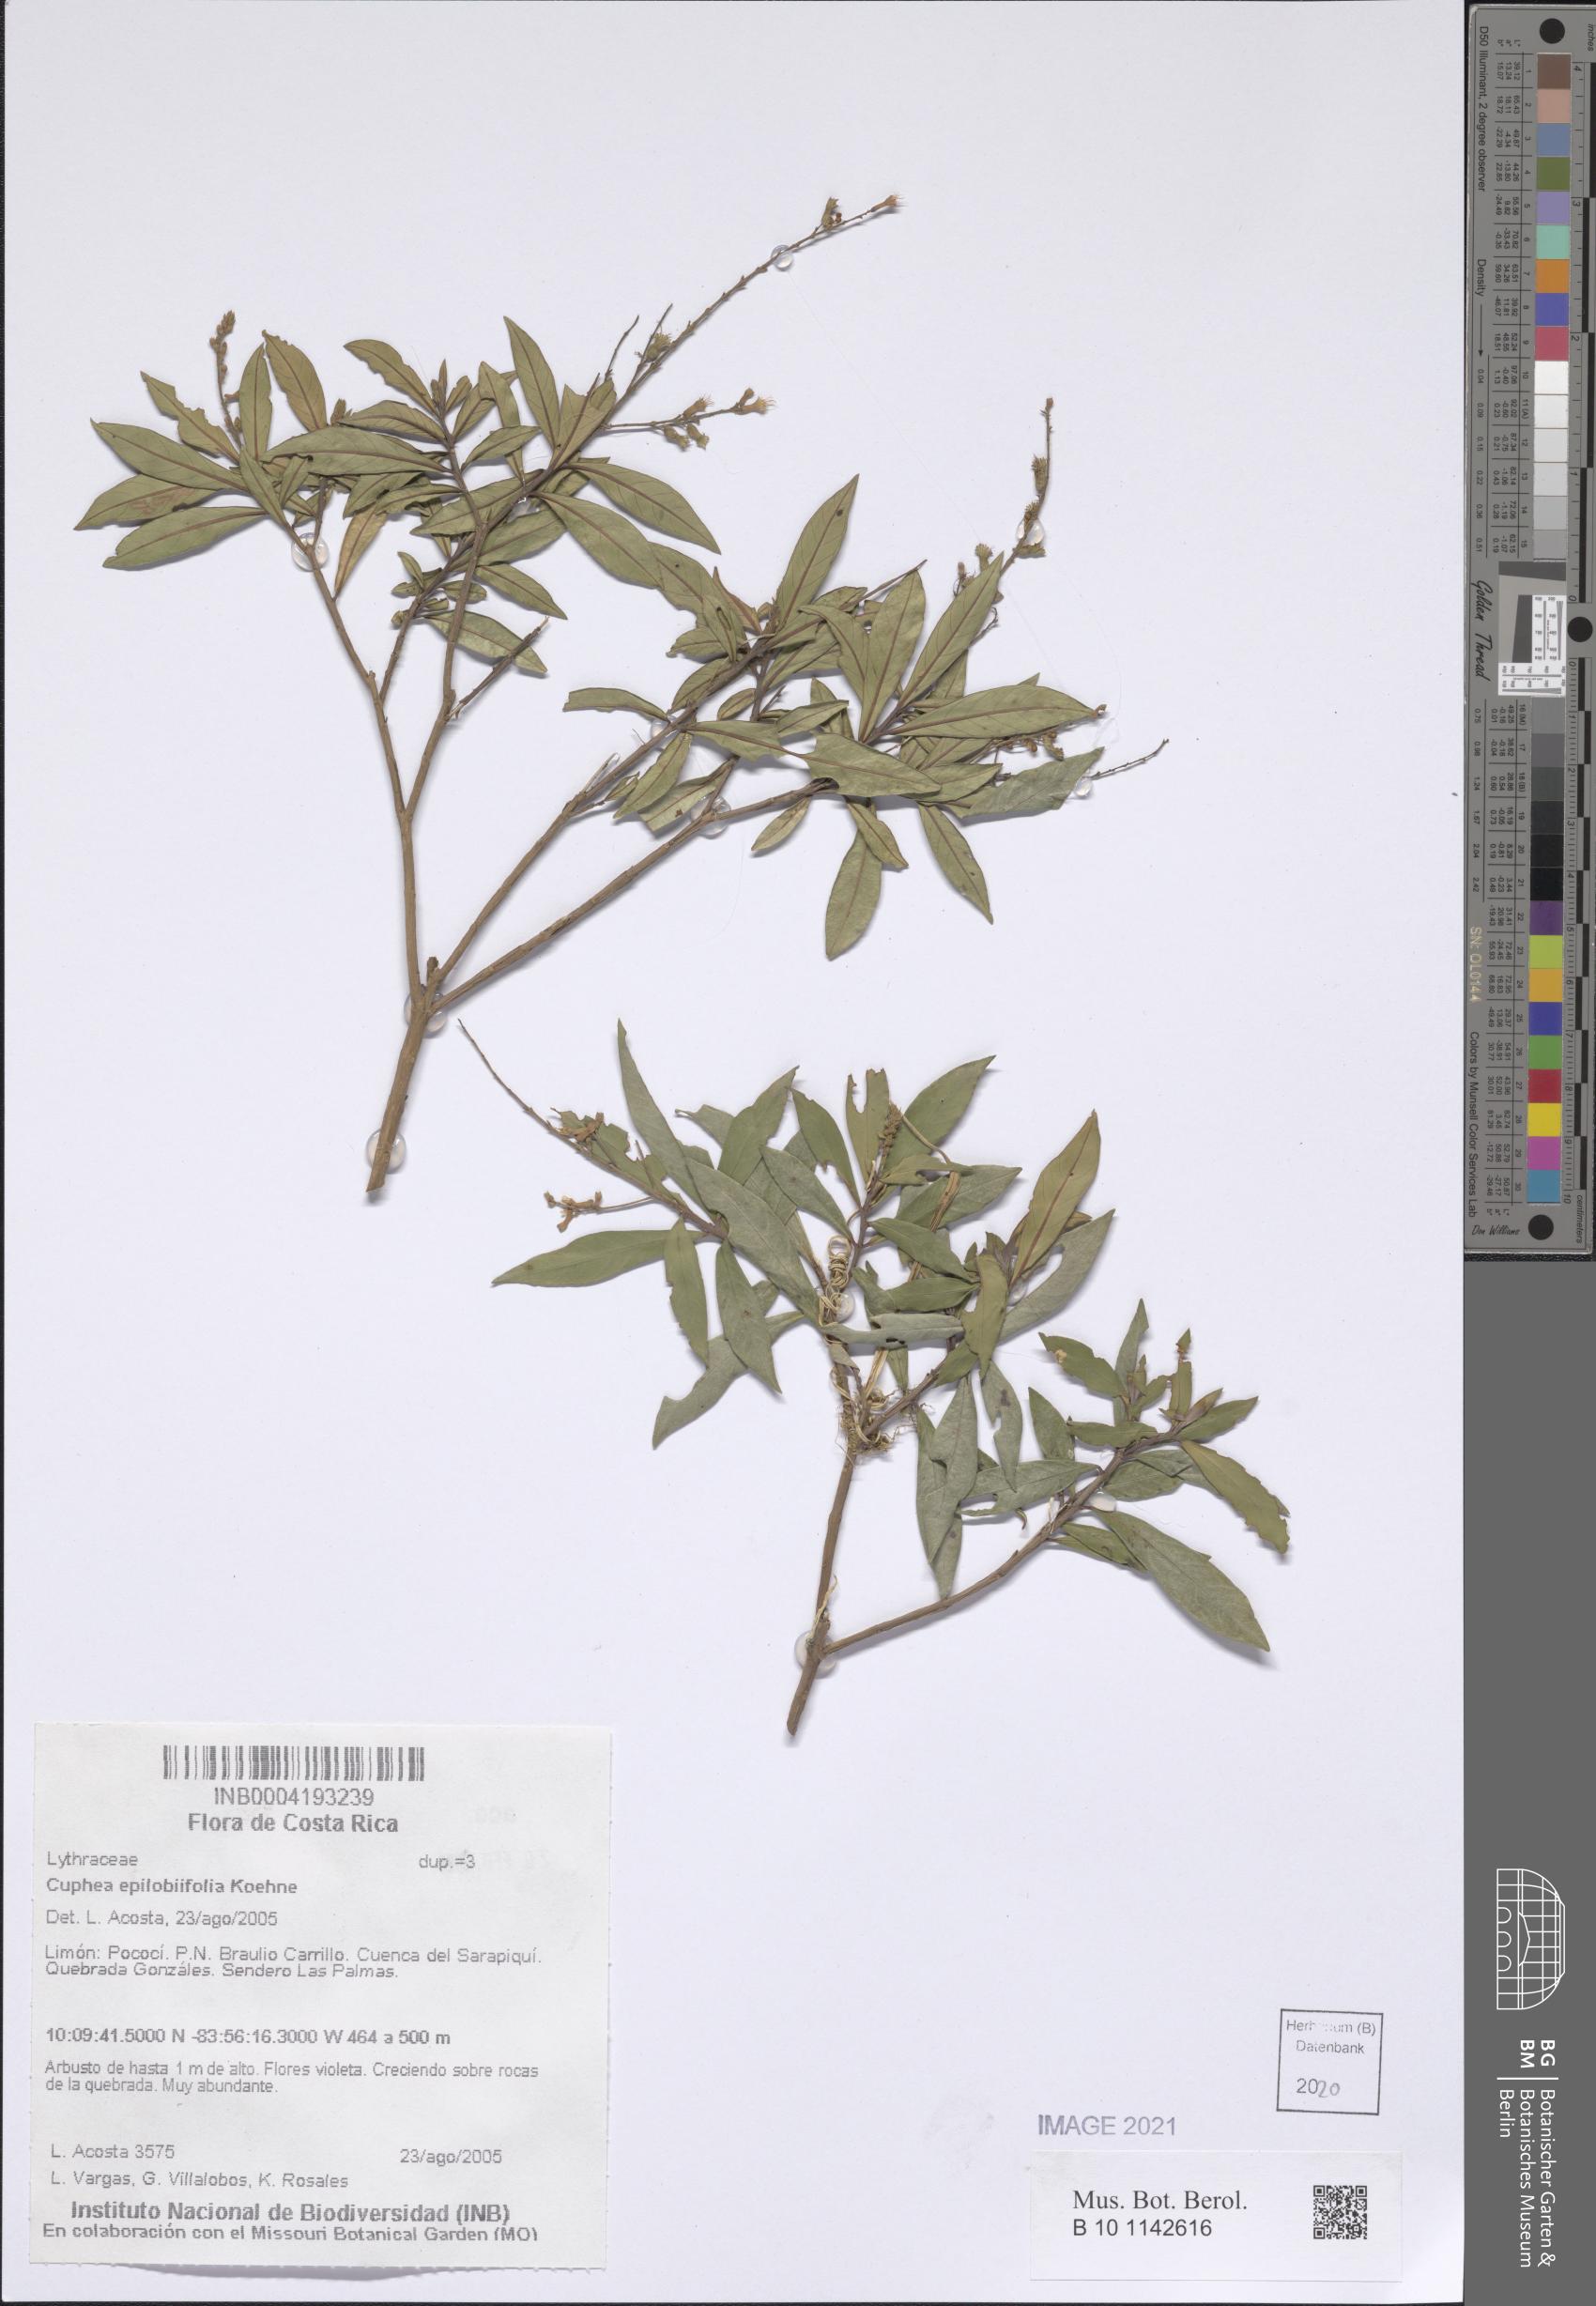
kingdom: Plantae
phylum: Tracheophyta
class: Magnoliopsida
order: Myrtales
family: Lythraceae
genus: Cuphea
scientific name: Cuphea epilobiifolia
